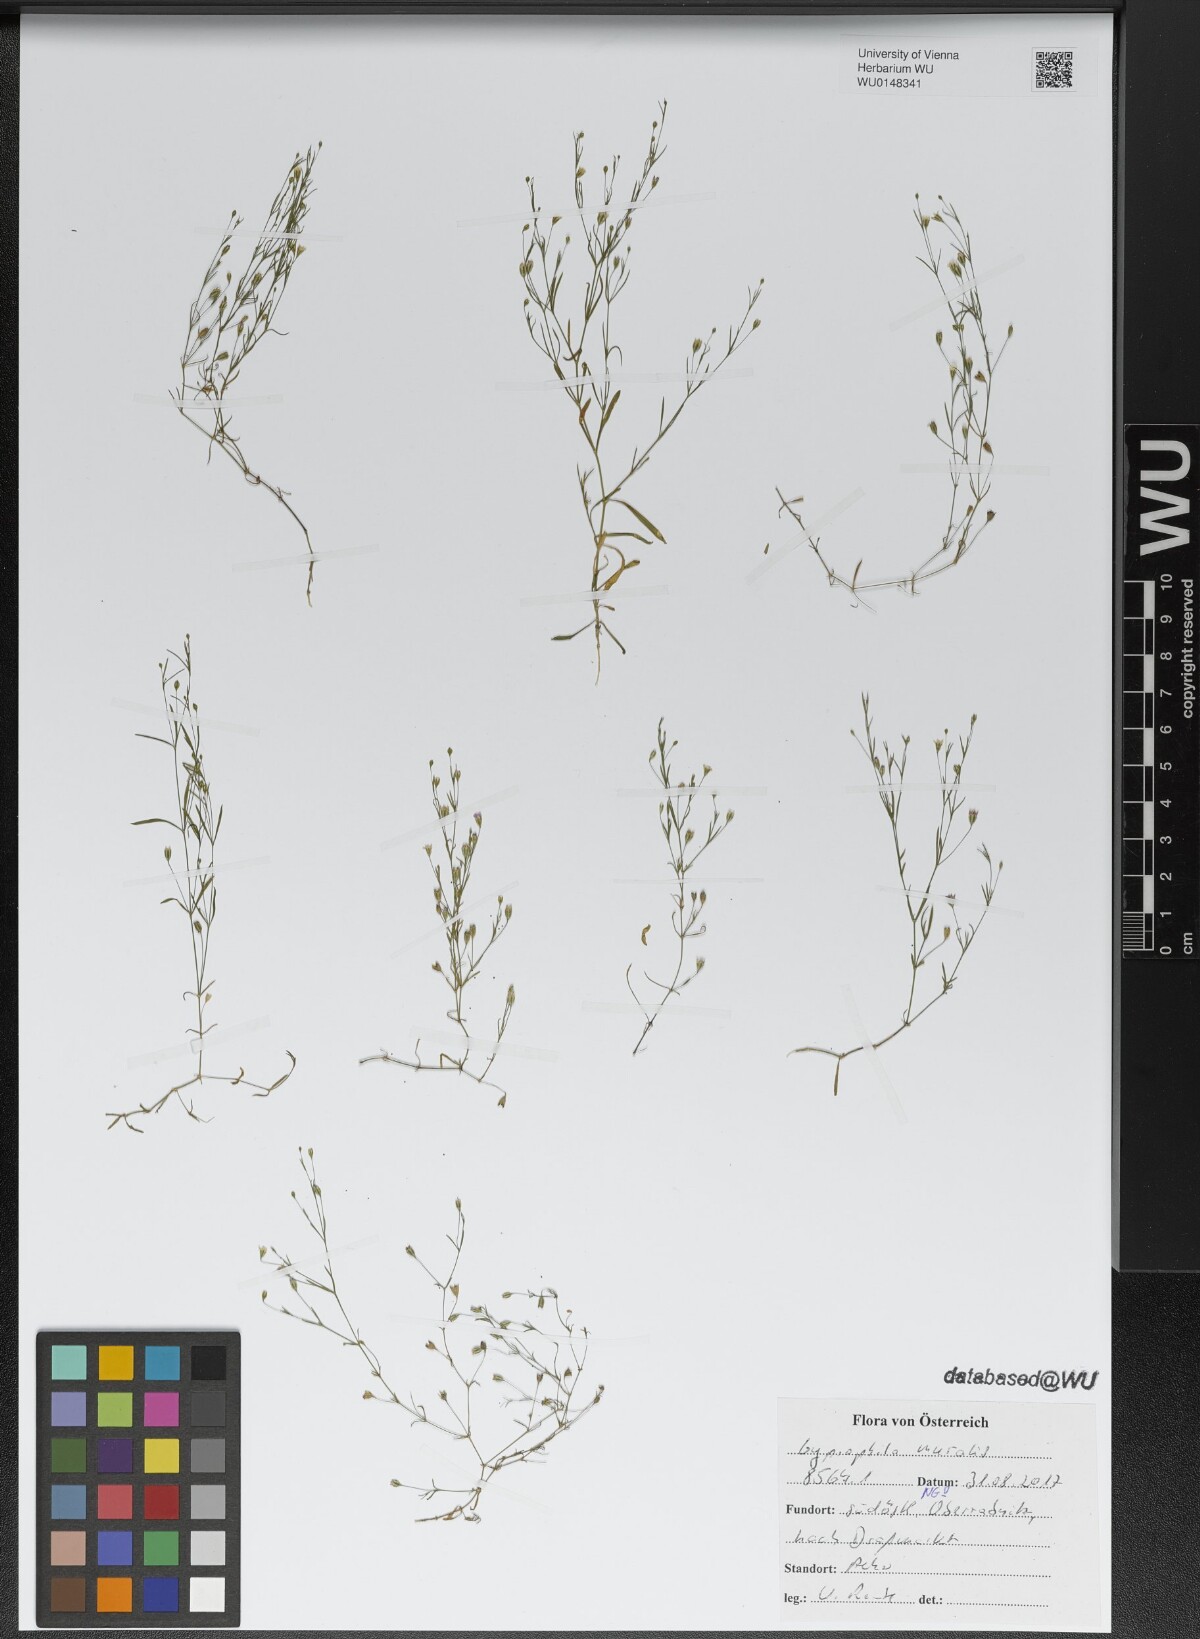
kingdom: Plantae
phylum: Tracheophyta
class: Magnoliopsida
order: Caryophyllales
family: Caryophyllaceae
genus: Psammophiliella
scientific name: Psammophiliella muralis
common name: Cushion baby's-breath
